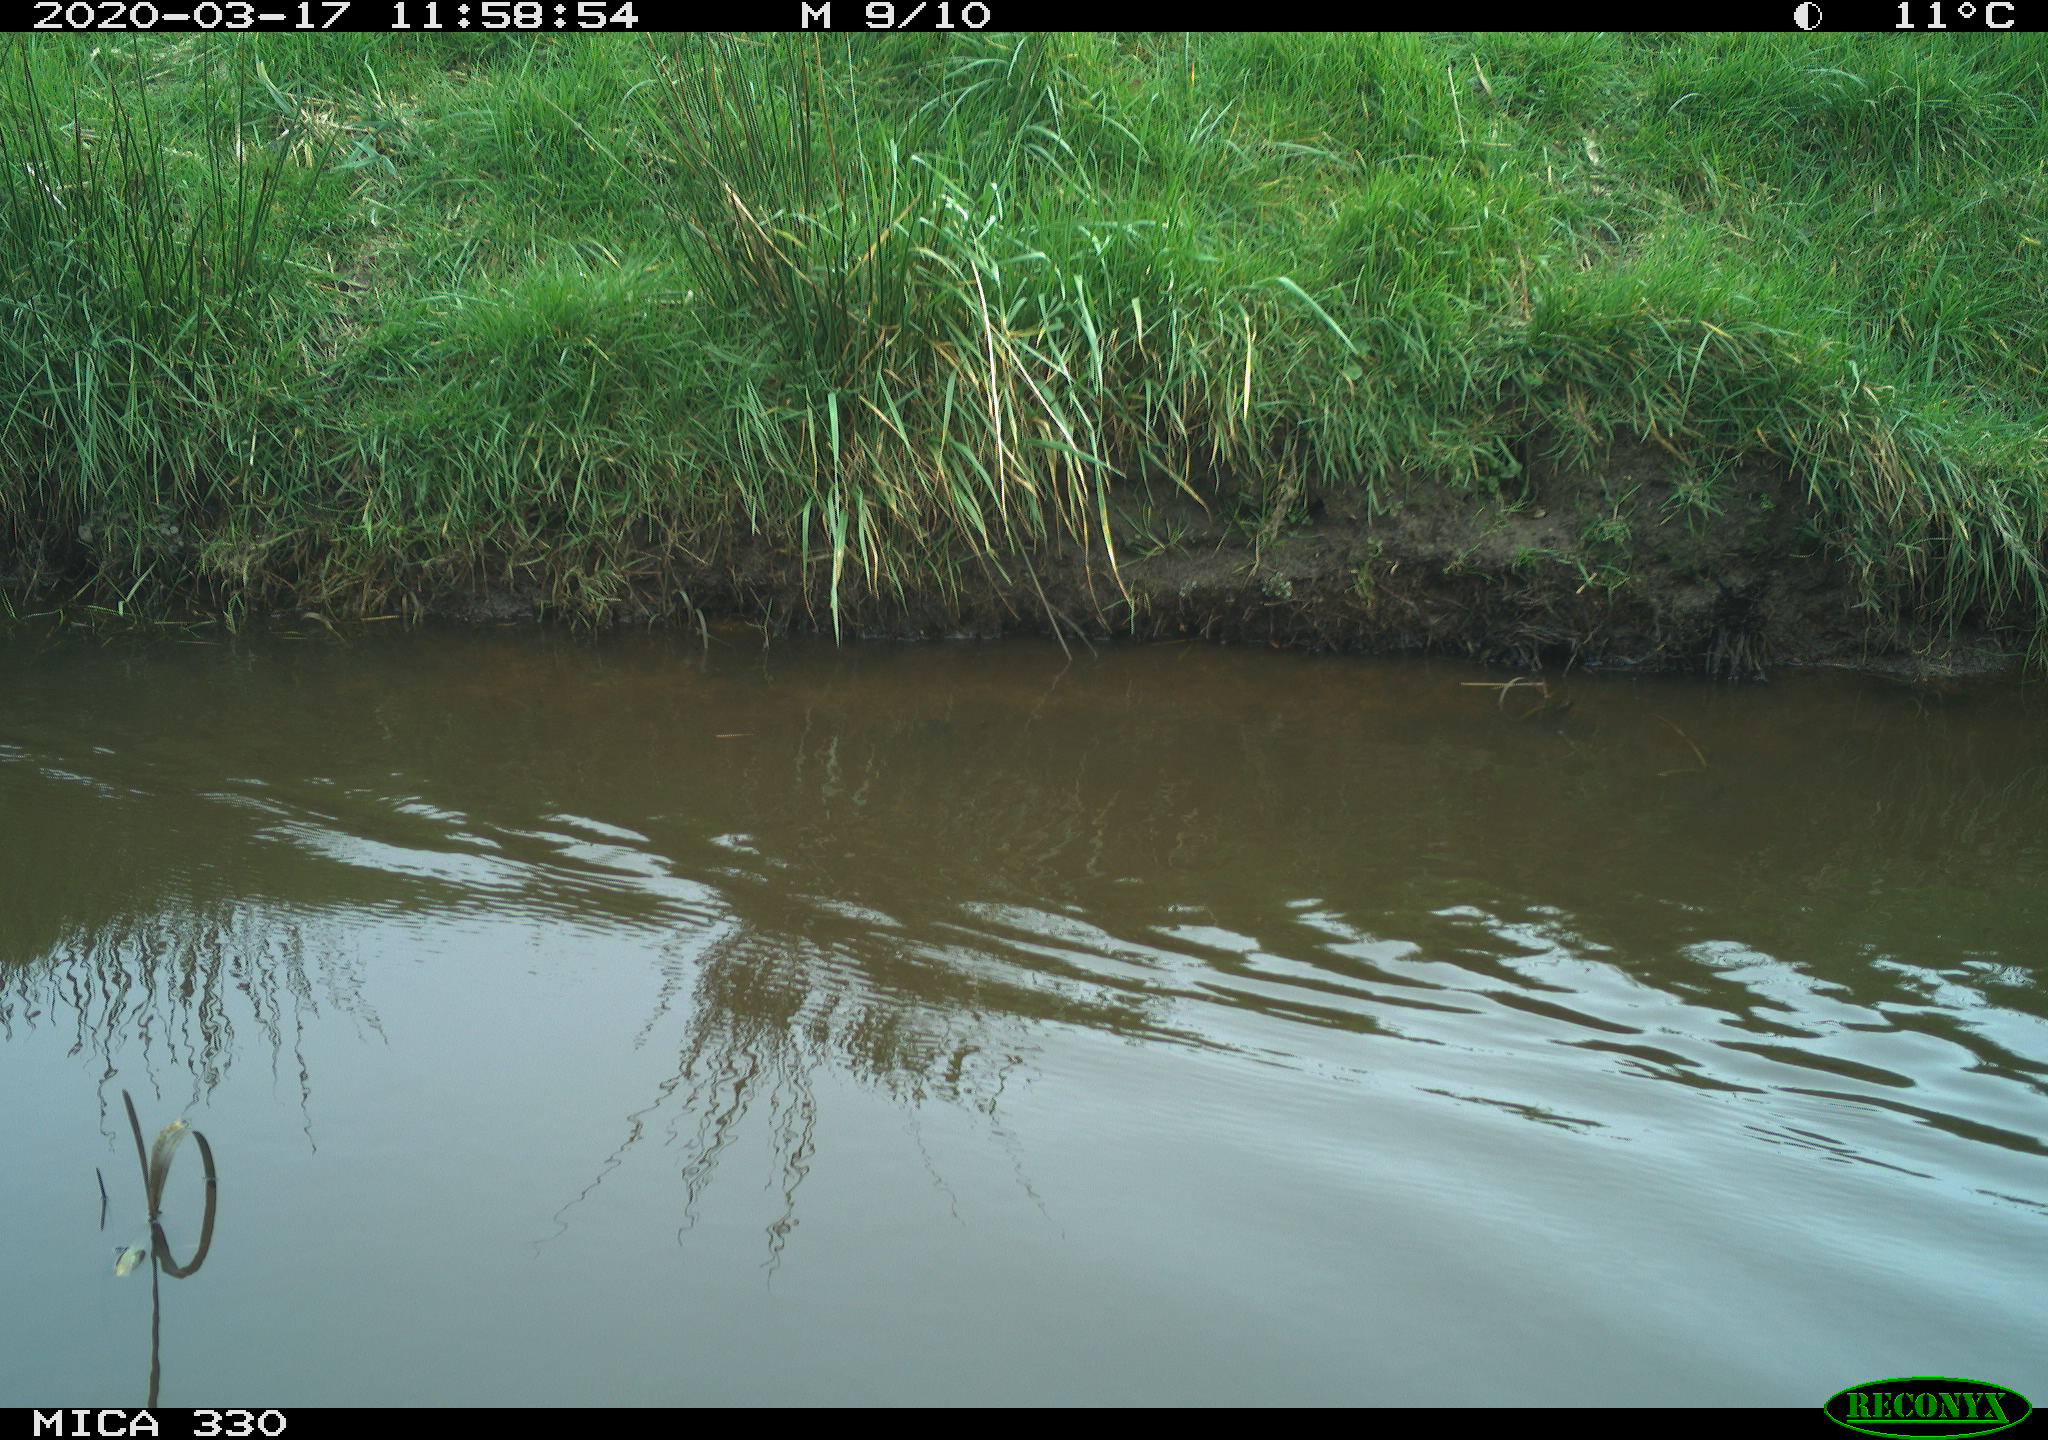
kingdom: Animalia
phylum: Chordata
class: Aves
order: Gruiformes
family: Rallidae
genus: Gallinula
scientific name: Gallinula chloropus
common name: Common moorhen
